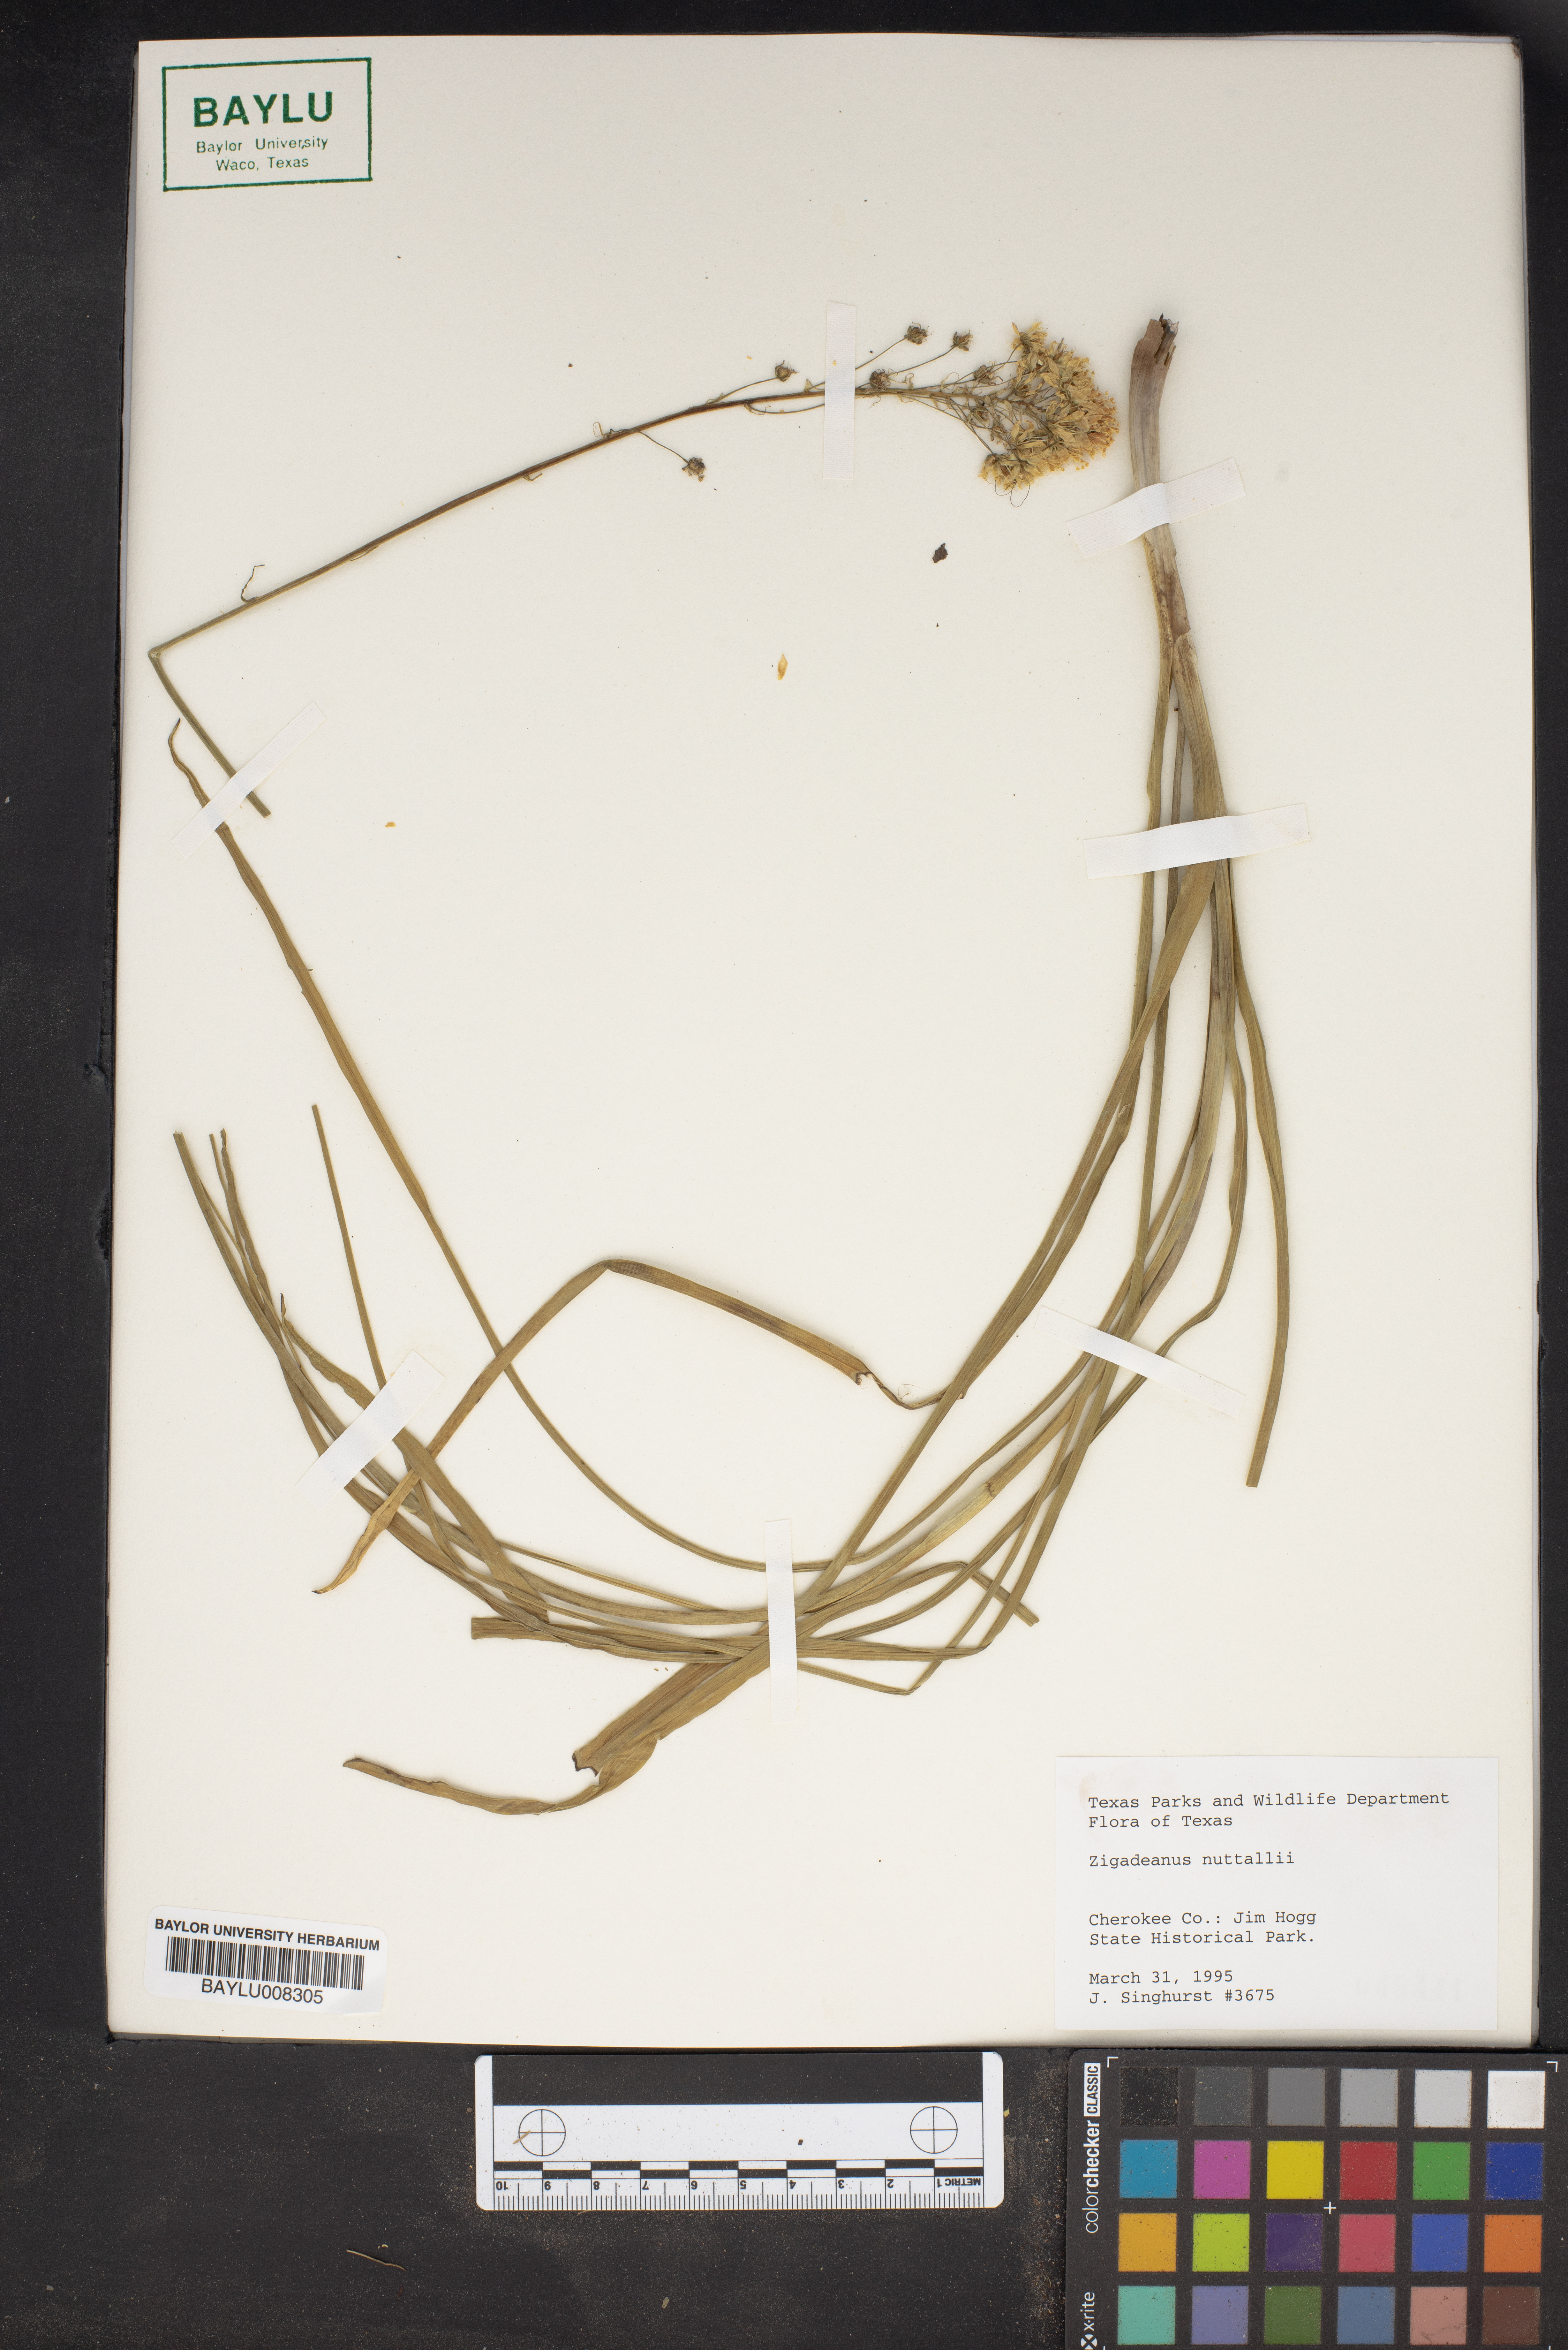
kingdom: Plantae
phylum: Tracheophyta
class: Liliopsida
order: Liliales
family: Melanthiaceae
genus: Toxicoscordion
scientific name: Toxicoscordion nuttallii
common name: Poison sego
